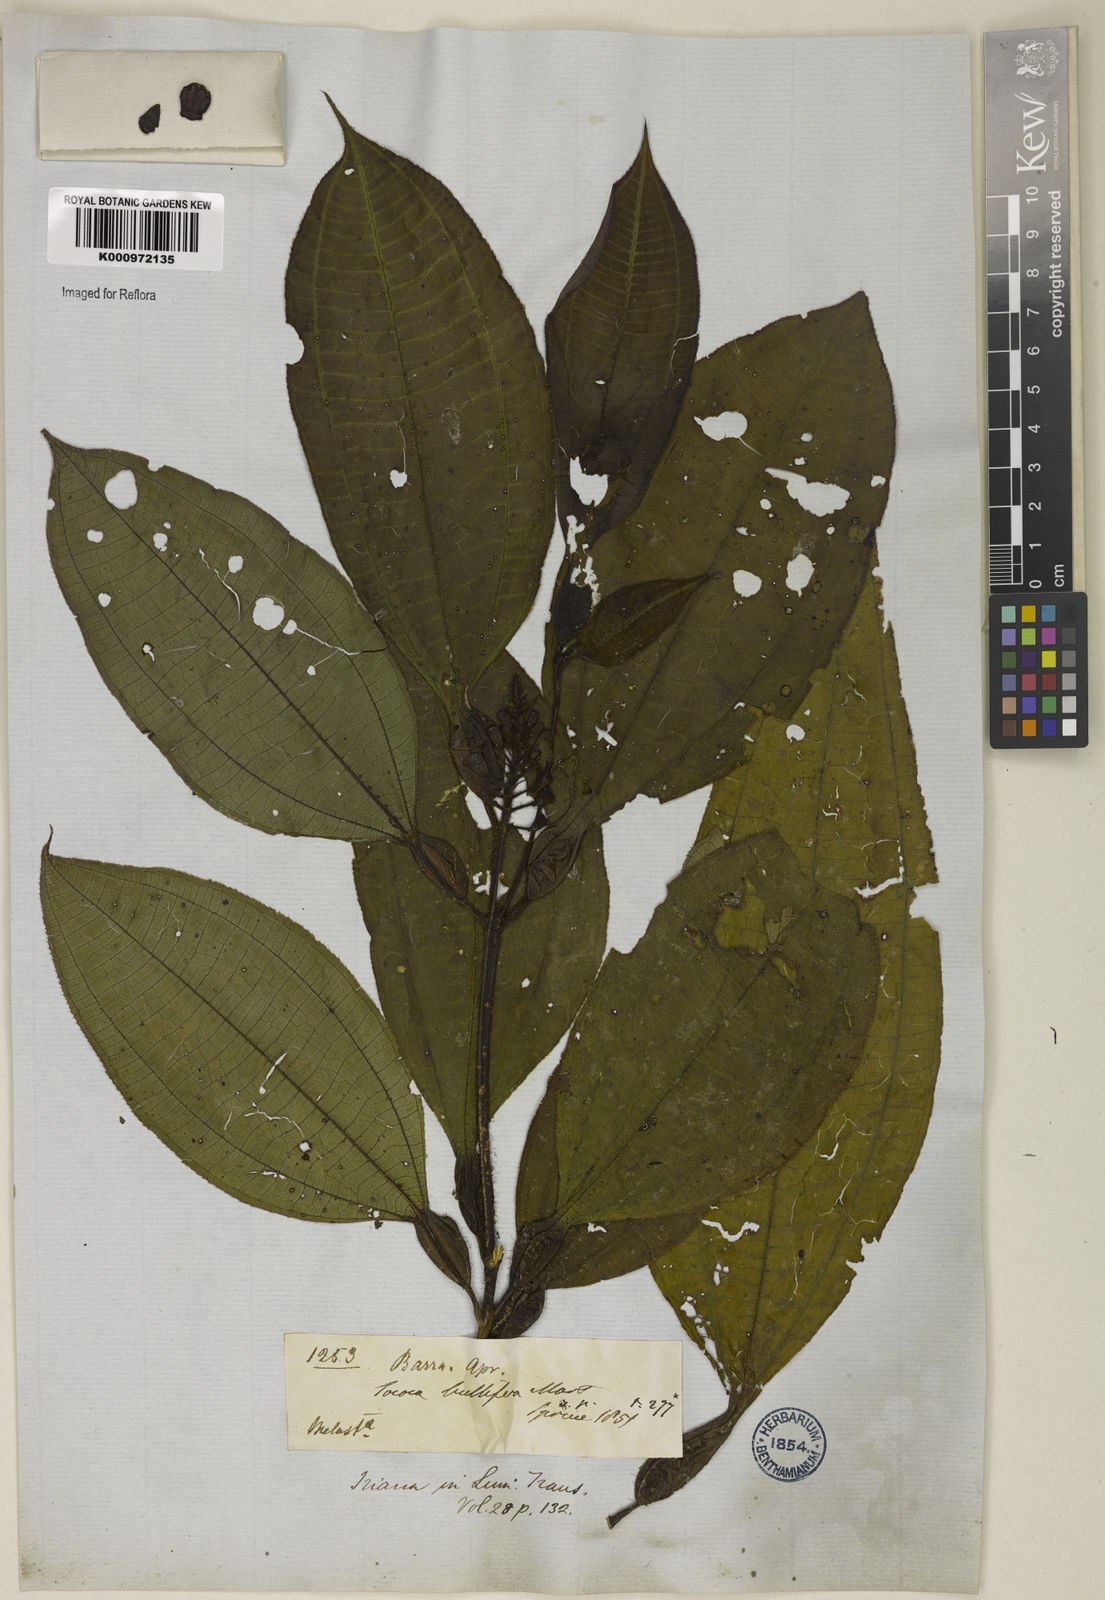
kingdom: Plantae
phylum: Tracheophyta
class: Magnoliopsida
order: Myrtales
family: Melastomataceae
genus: Miconia
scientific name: Miconia bullifera
